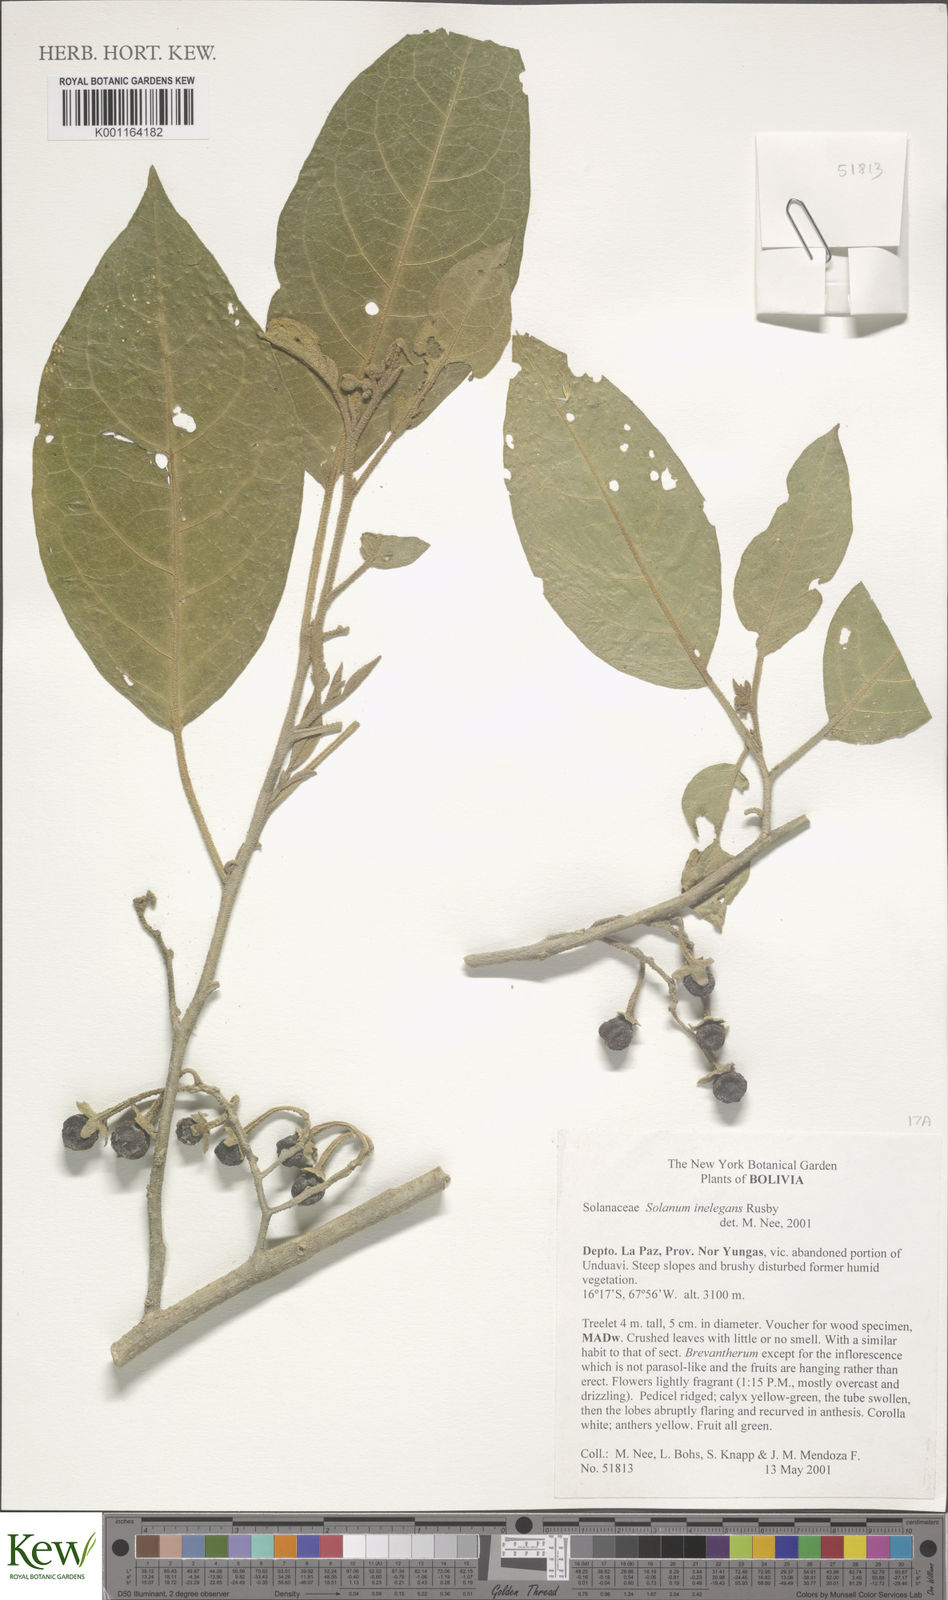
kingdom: Plantae
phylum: Tracheophyta
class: Magnoliopsida
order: Solanales
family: Solanaceae
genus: Solanum
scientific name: Solanum inelegans
